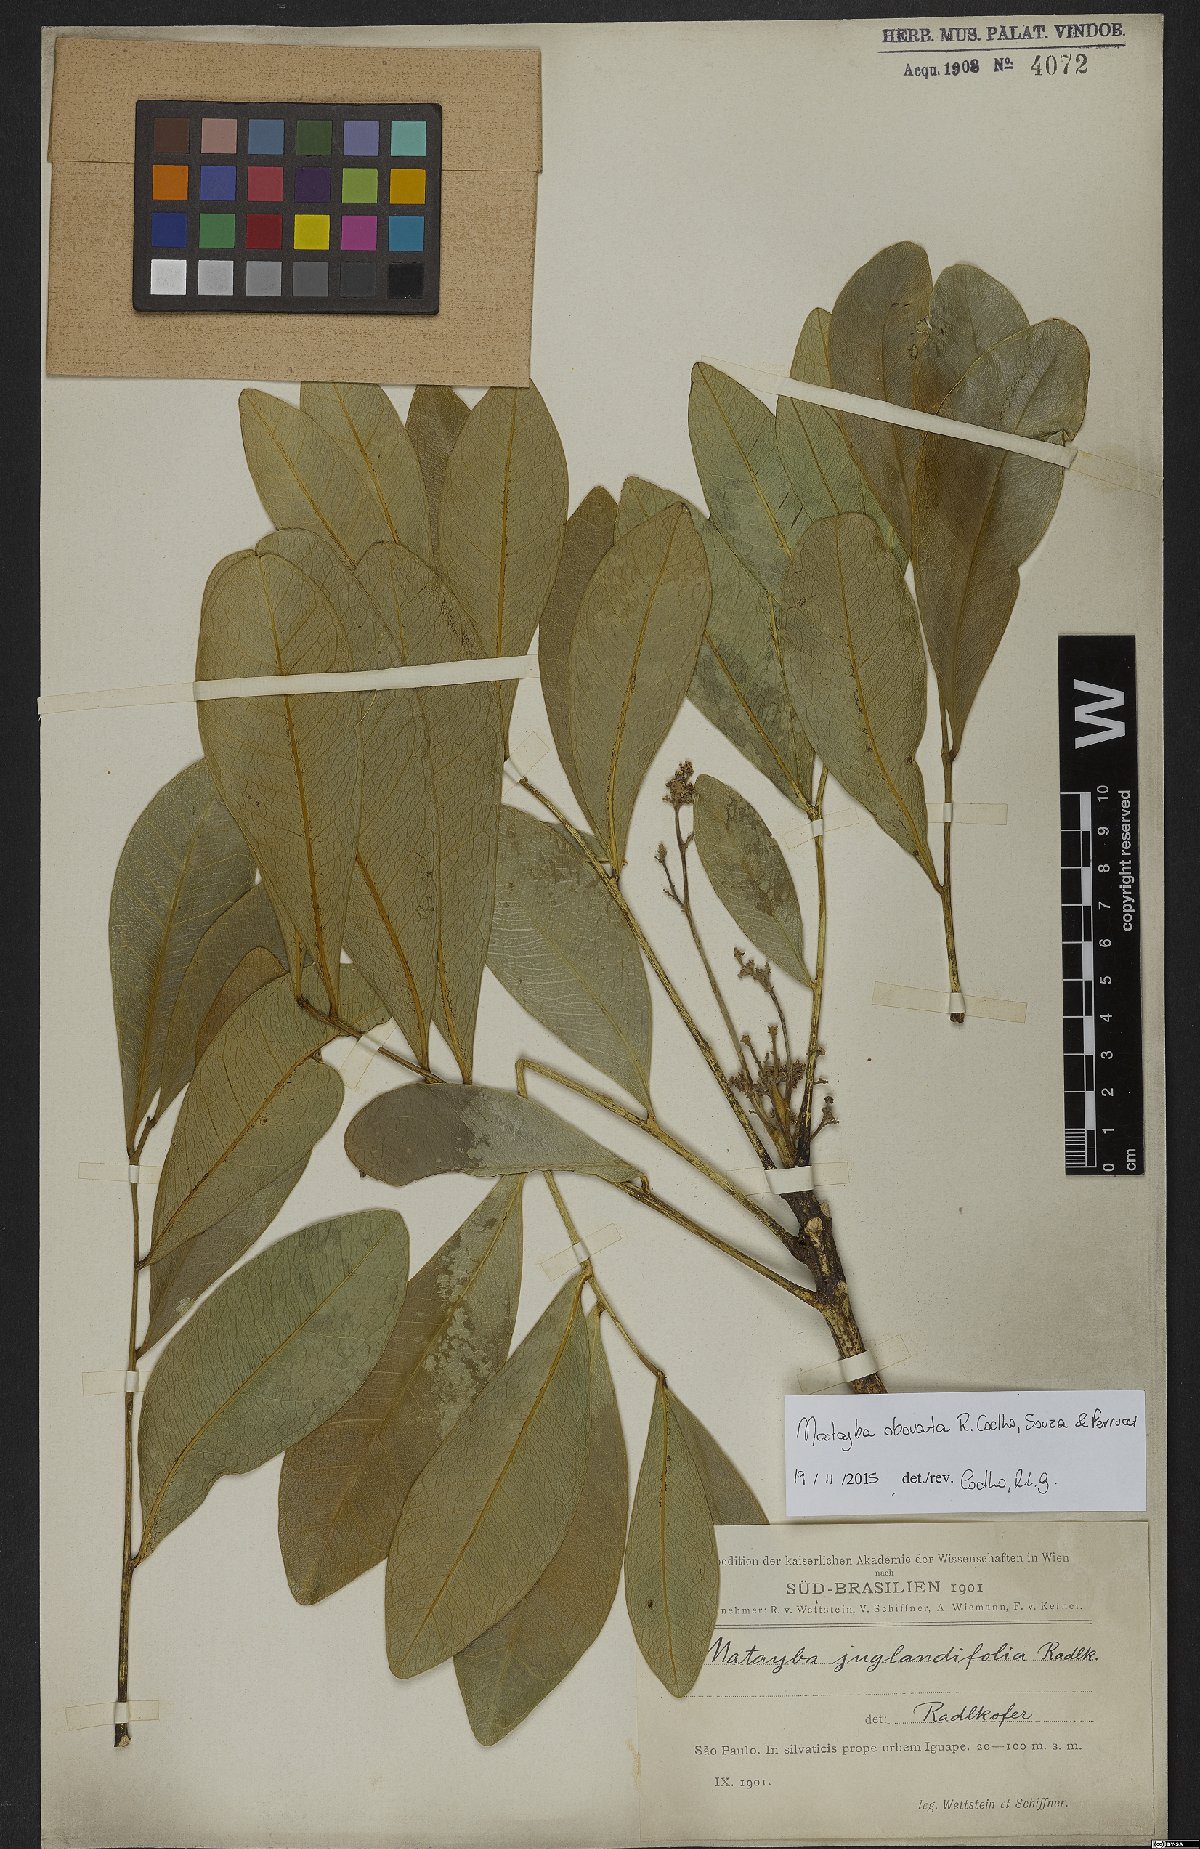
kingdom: Plantae
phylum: Tracheophyta
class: Magnoliopsida
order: Sapindales
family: Sapindaceae
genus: Matayba
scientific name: Matayba obovata
